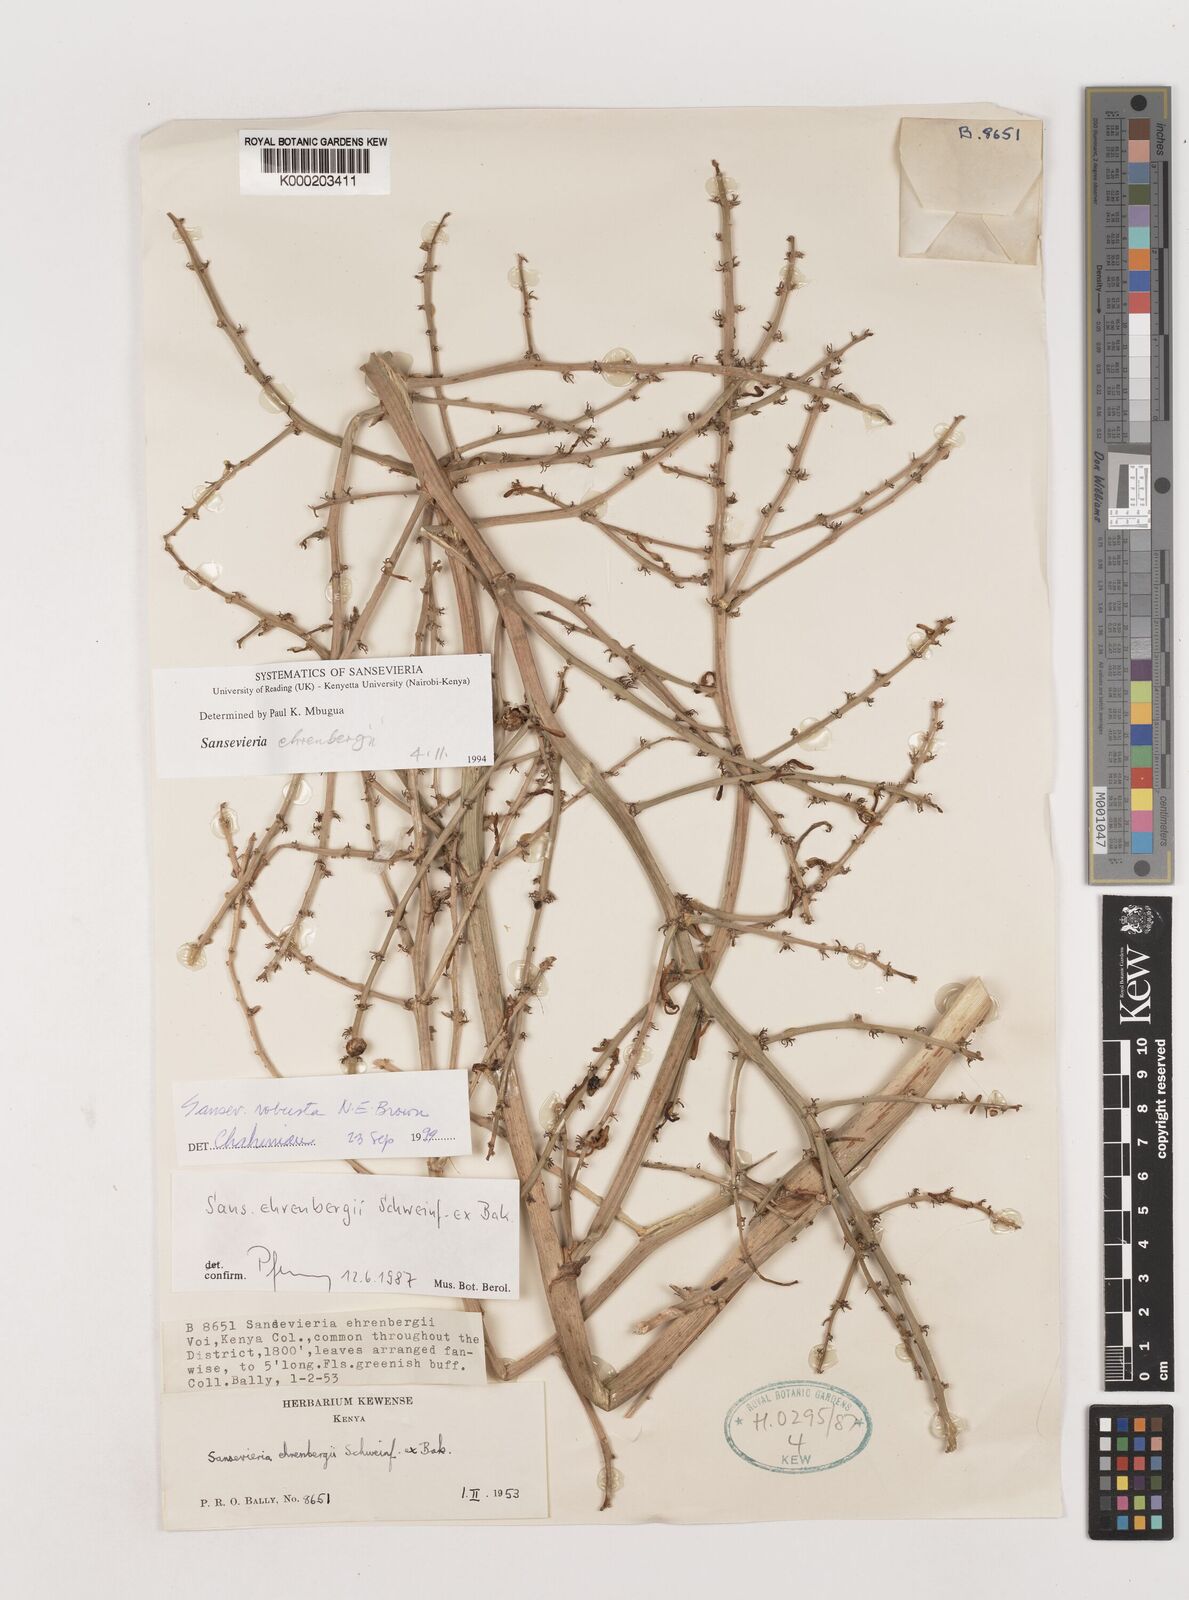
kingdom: Plantae
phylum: Tracheophyta
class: Liliopsida
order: Asparagales
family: Asparagaceae
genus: Dracaena
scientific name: Dracaena hanningtonii
